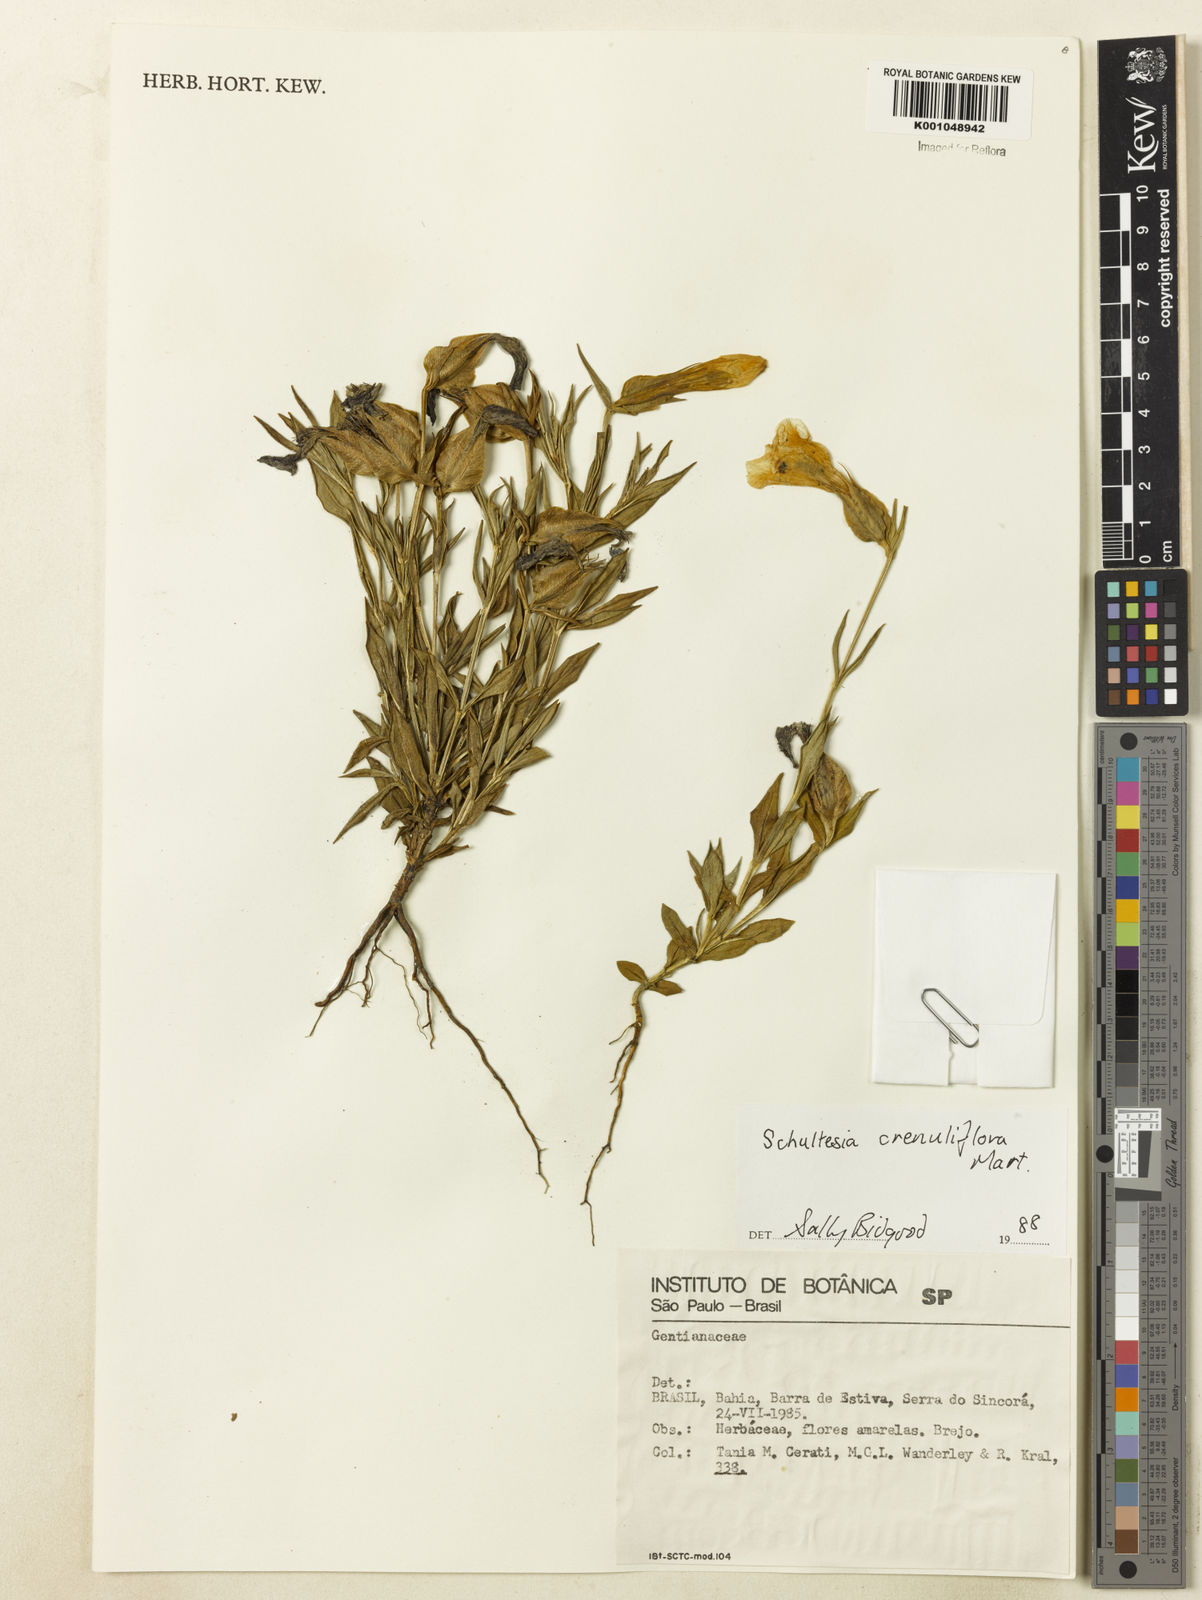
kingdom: Plantae
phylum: Tracheophyta
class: Magnoliopsida
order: Gentianales
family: Gentianaceae
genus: Schultesia
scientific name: Schultesia crenuliflora
